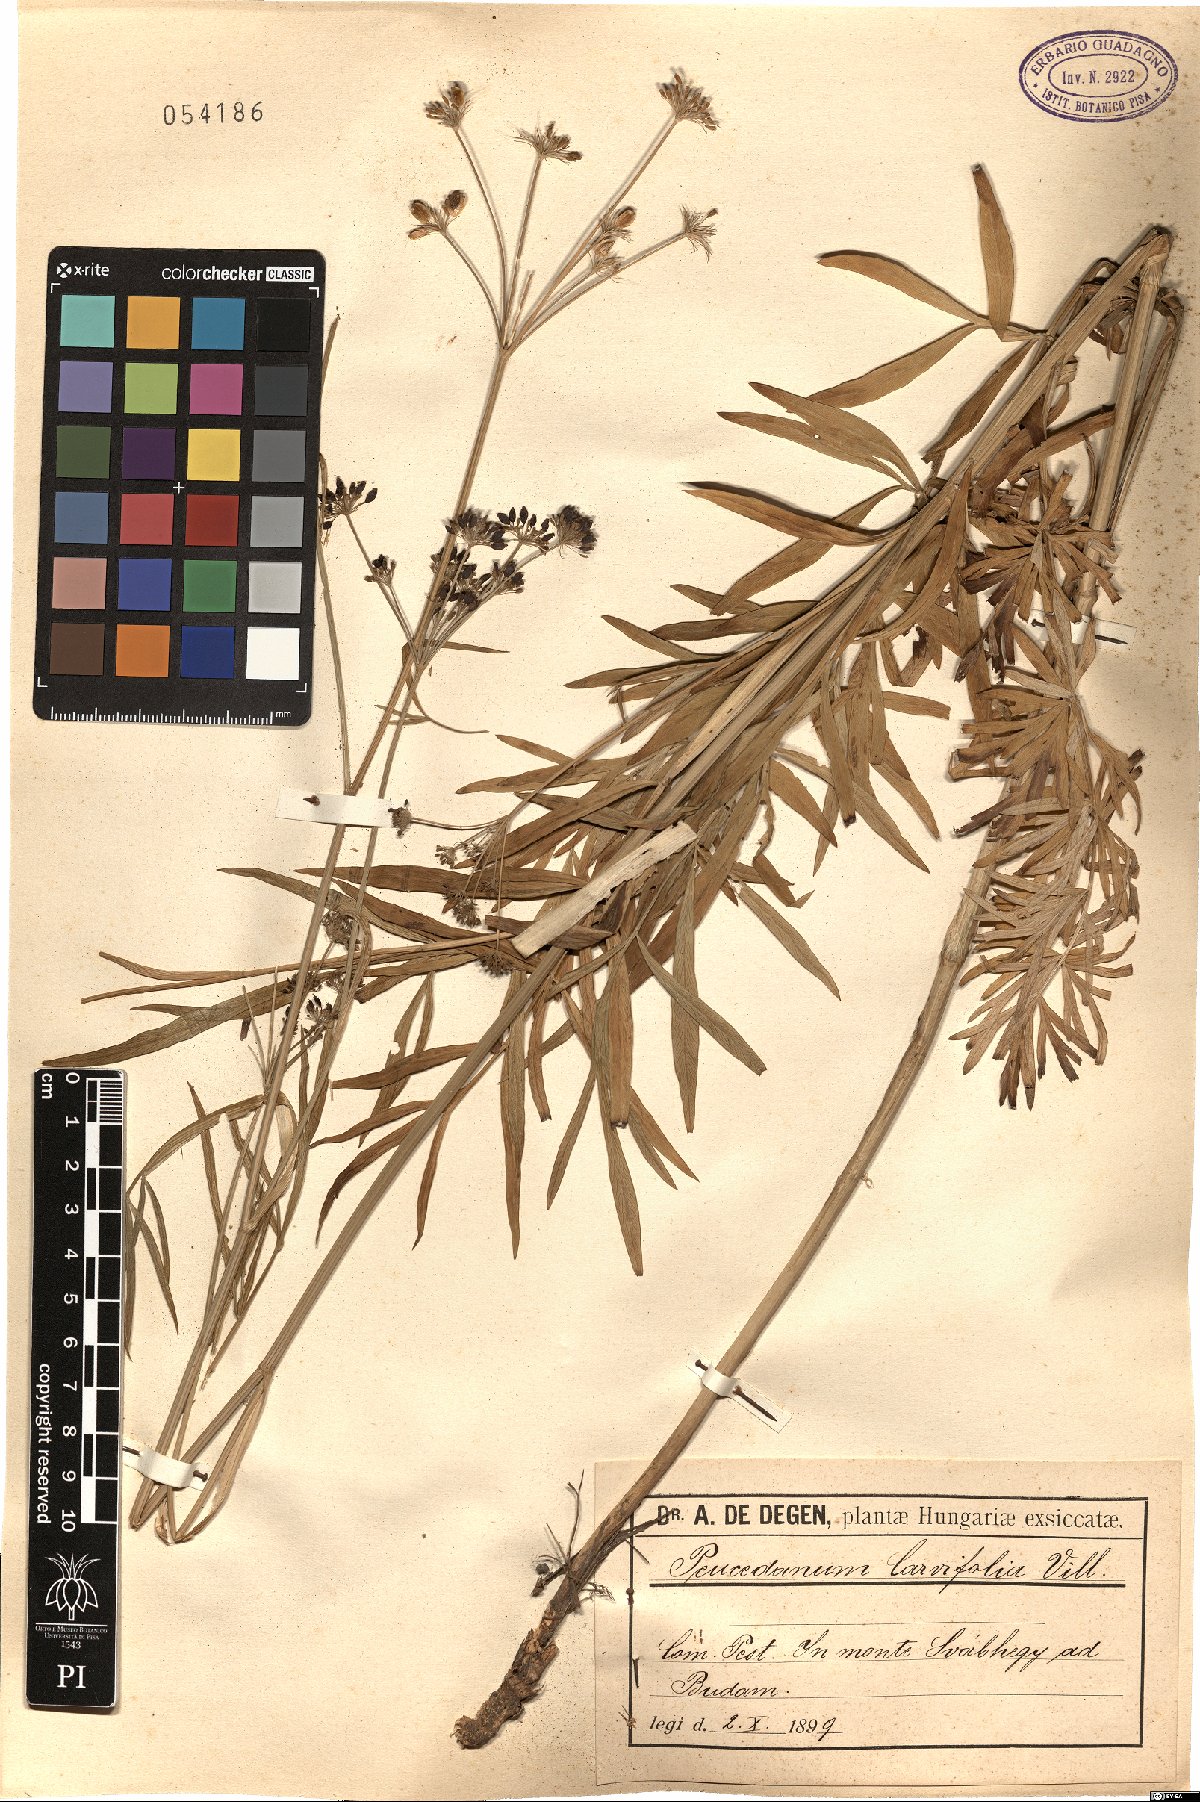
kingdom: Plantae
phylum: Tracheophyta
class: Magnoliopsida
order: Apiales
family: Apiaceae
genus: Dichoropetalum
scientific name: Dichoropetalum carvifolia
